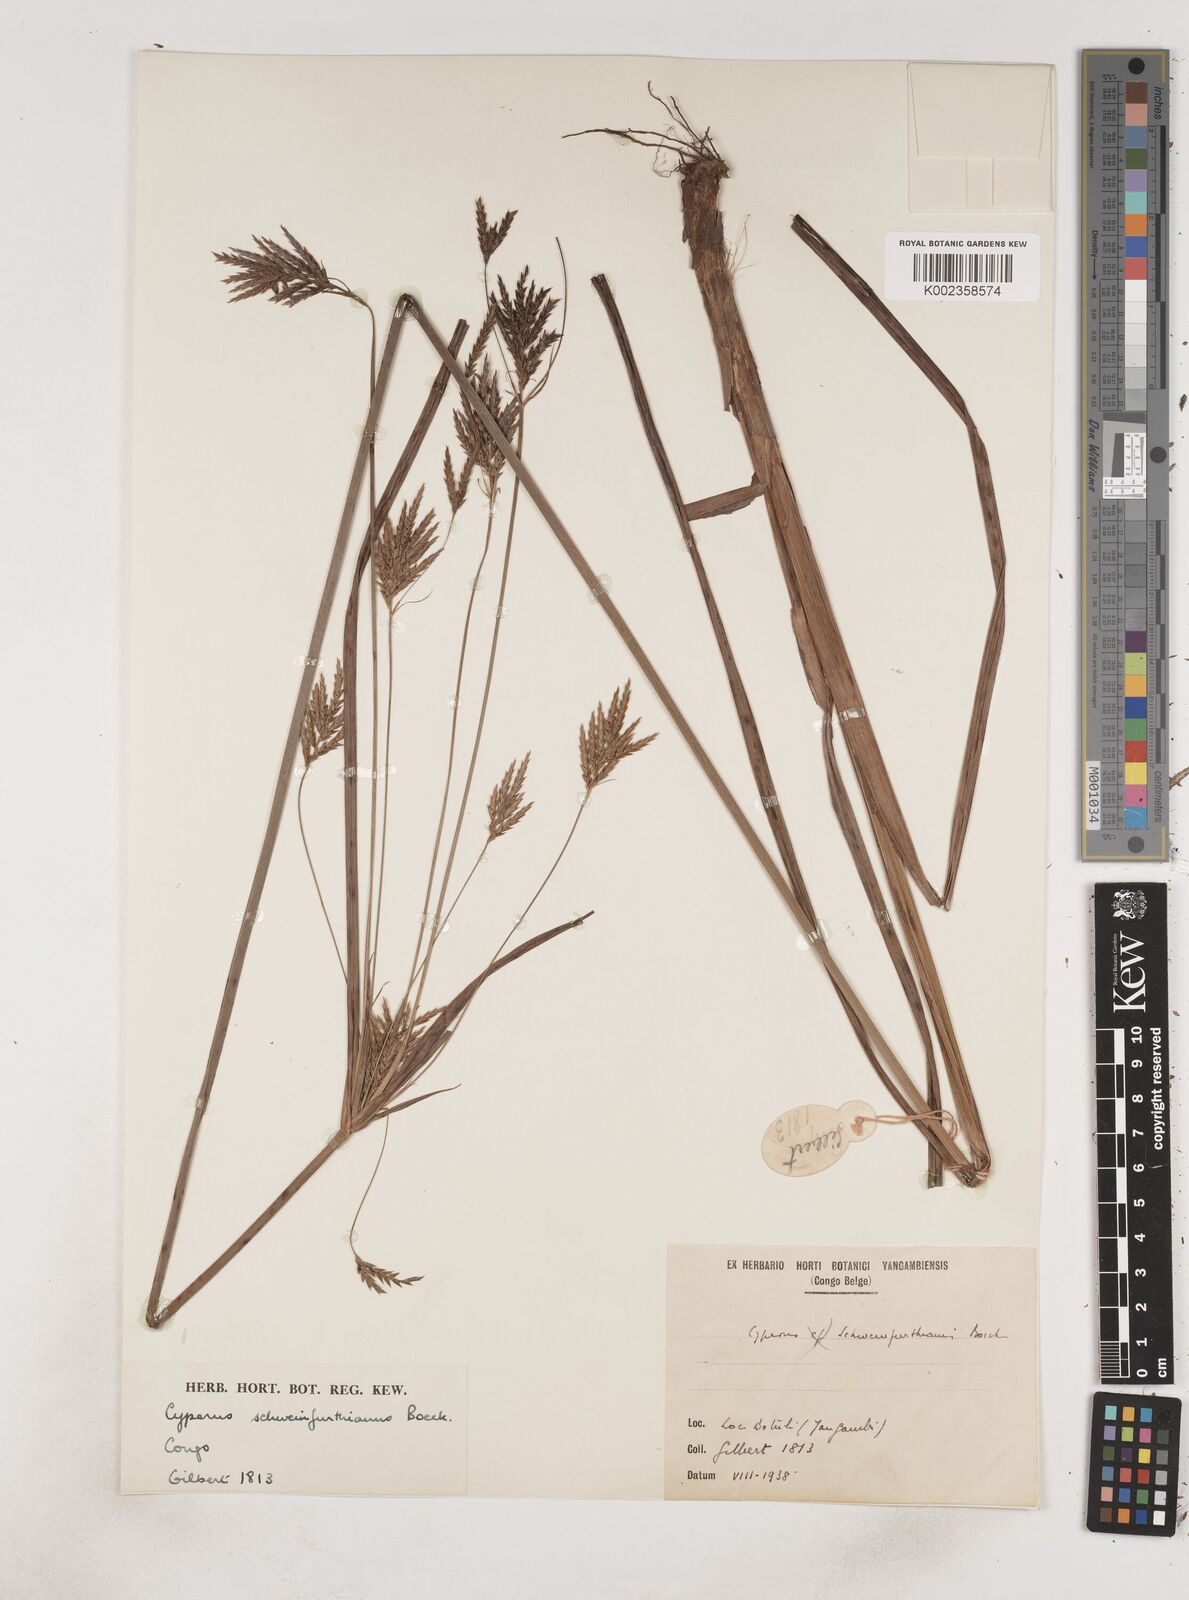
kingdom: Plantae
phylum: Tracheophyta
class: Liliopsida
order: Poales
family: Cyperaceae
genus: Cyperus
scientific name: Cyperus tenuiculmis
